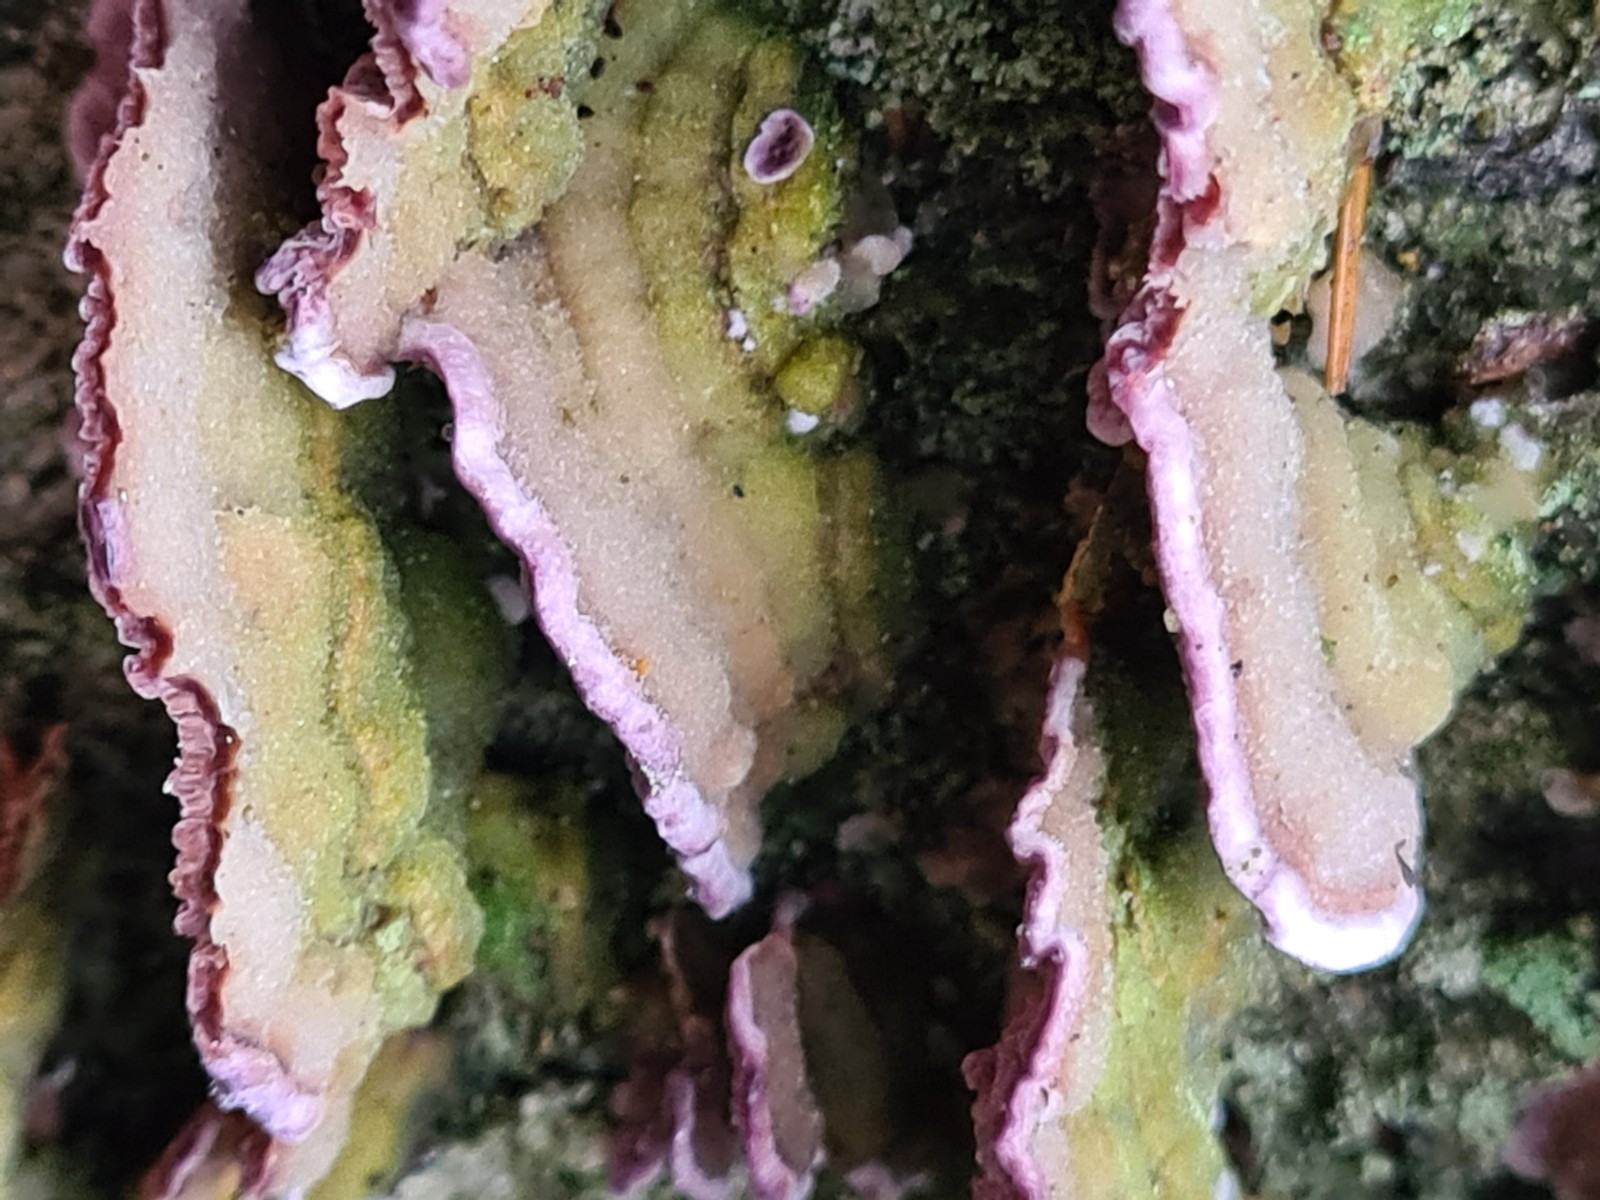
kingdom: Fungi
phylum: Basidiomycota
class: Agaricomycetes
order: Hymenochaetales
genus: Trichaptum
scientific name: Trichaptum abietinum
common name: almindelig violporesvamp
